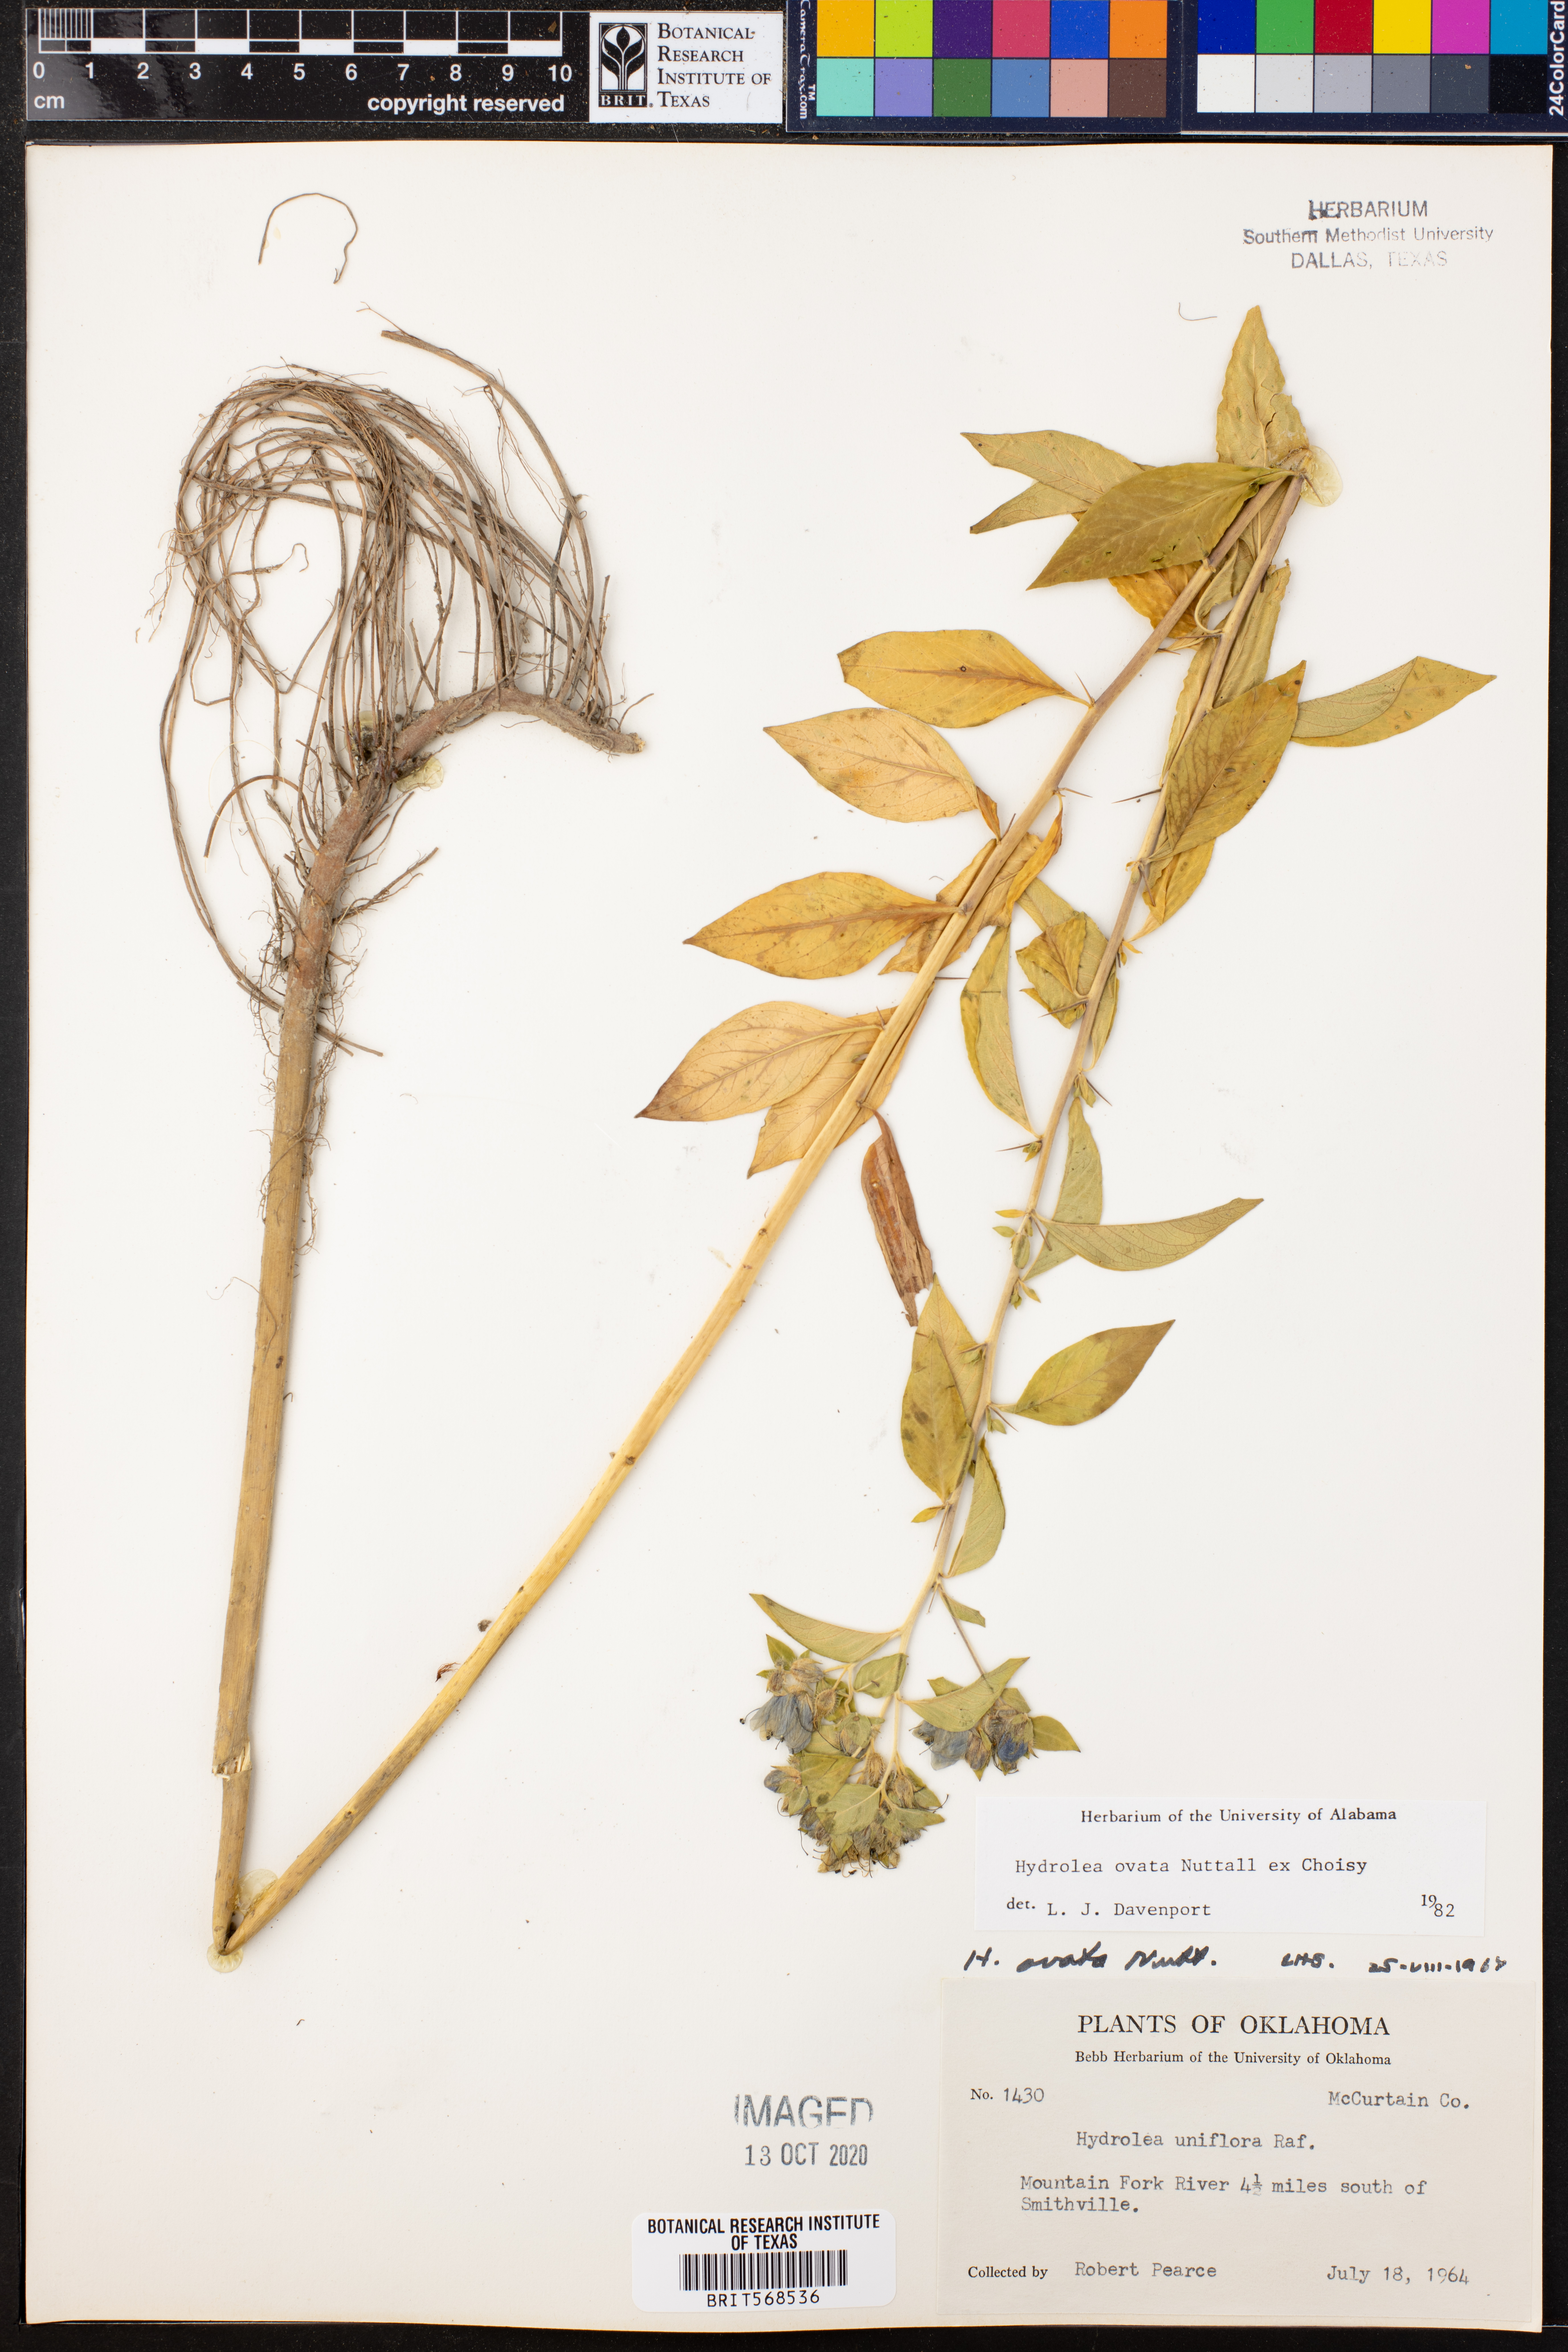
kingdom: Plantae
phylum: Tracheophyta
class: Magnoliopsida
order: Solanales
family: Hydroleaceae
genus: Hydrolea
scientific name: Hydrolea ovata
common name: Ovate false fiddleleaf
